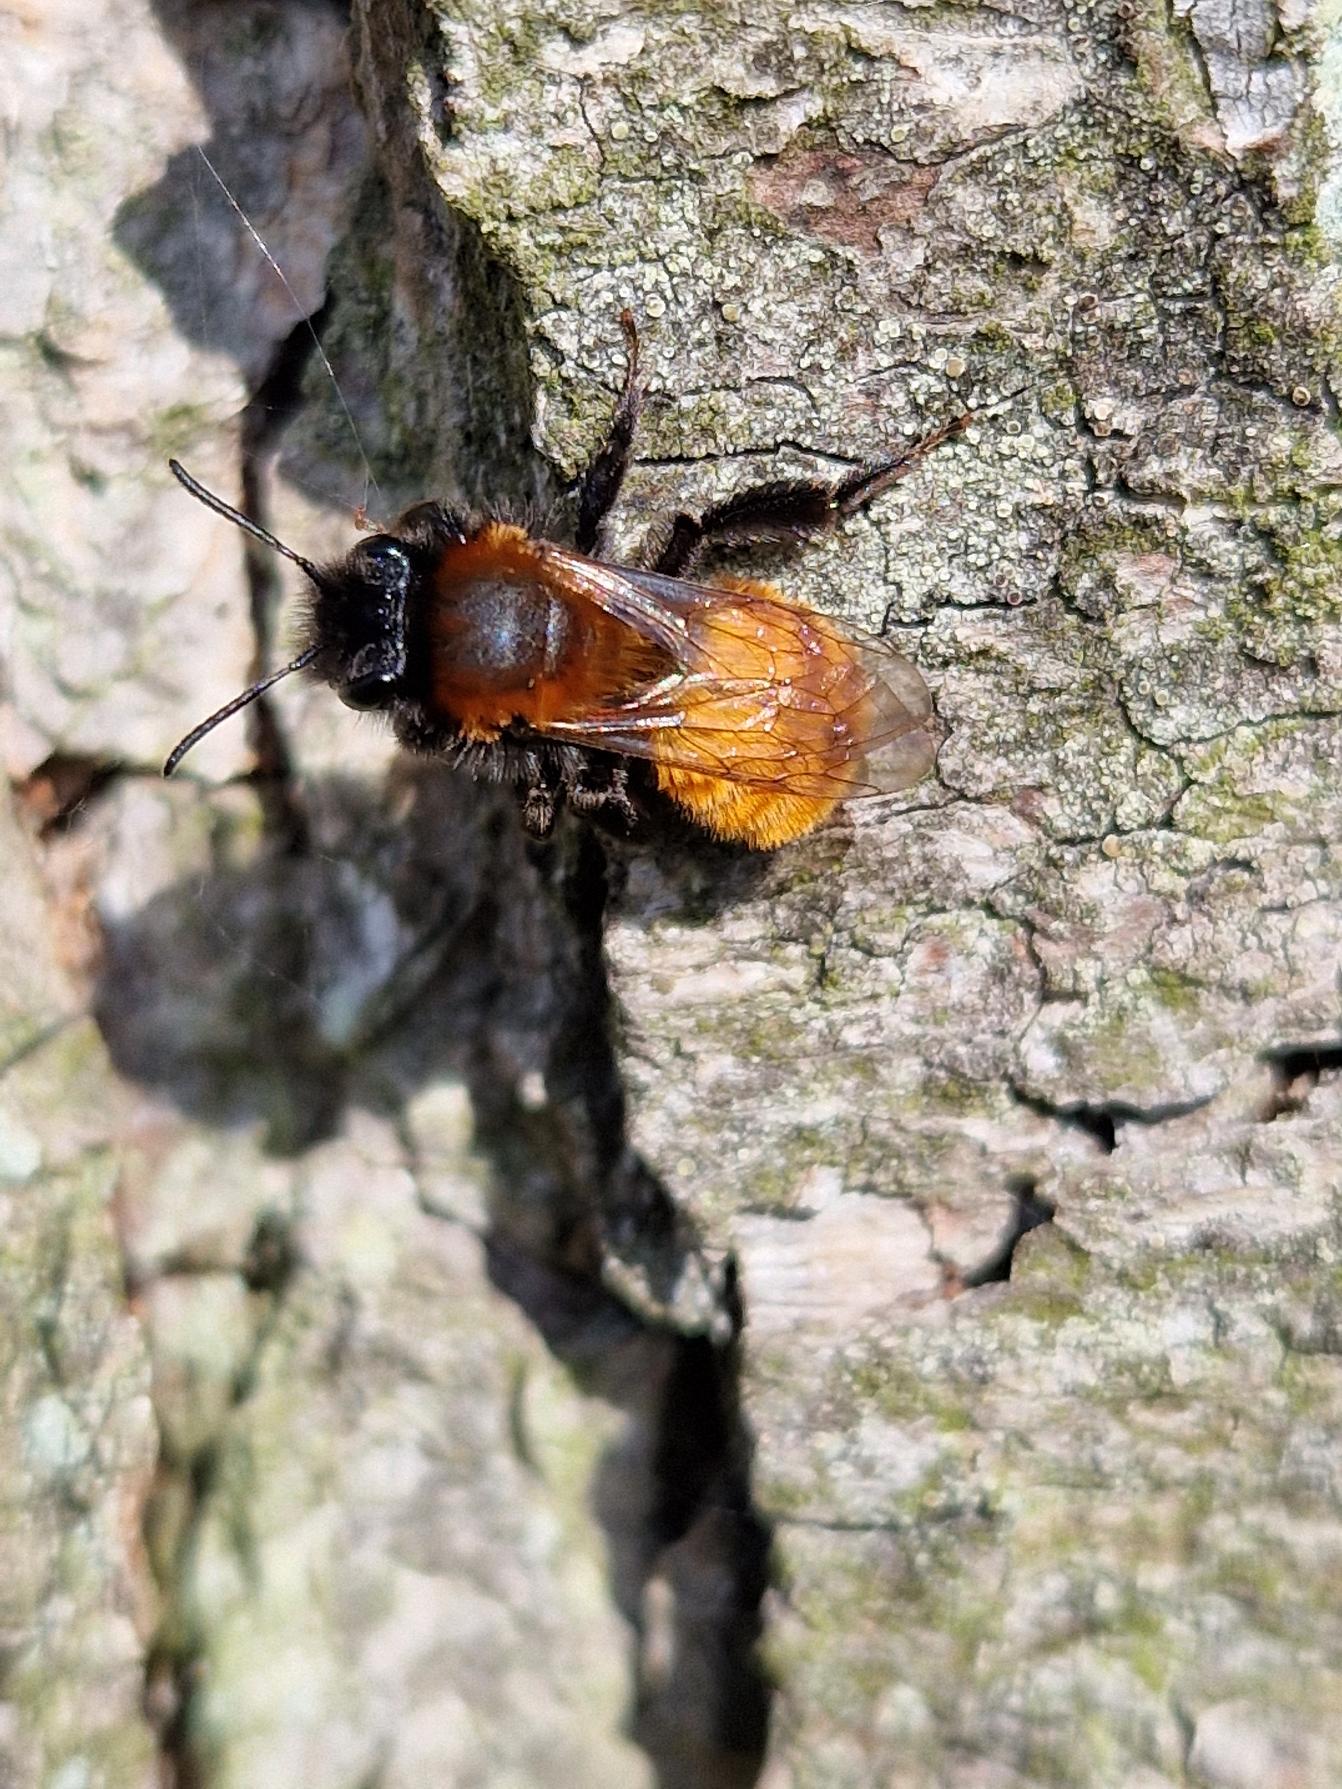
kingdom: Animalia
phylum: Arthropoda
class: Insecta
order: Hymenoptera
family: Andrenidae
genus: Andrena
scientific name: Andrena fulva
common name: Rødpelset jordbi
